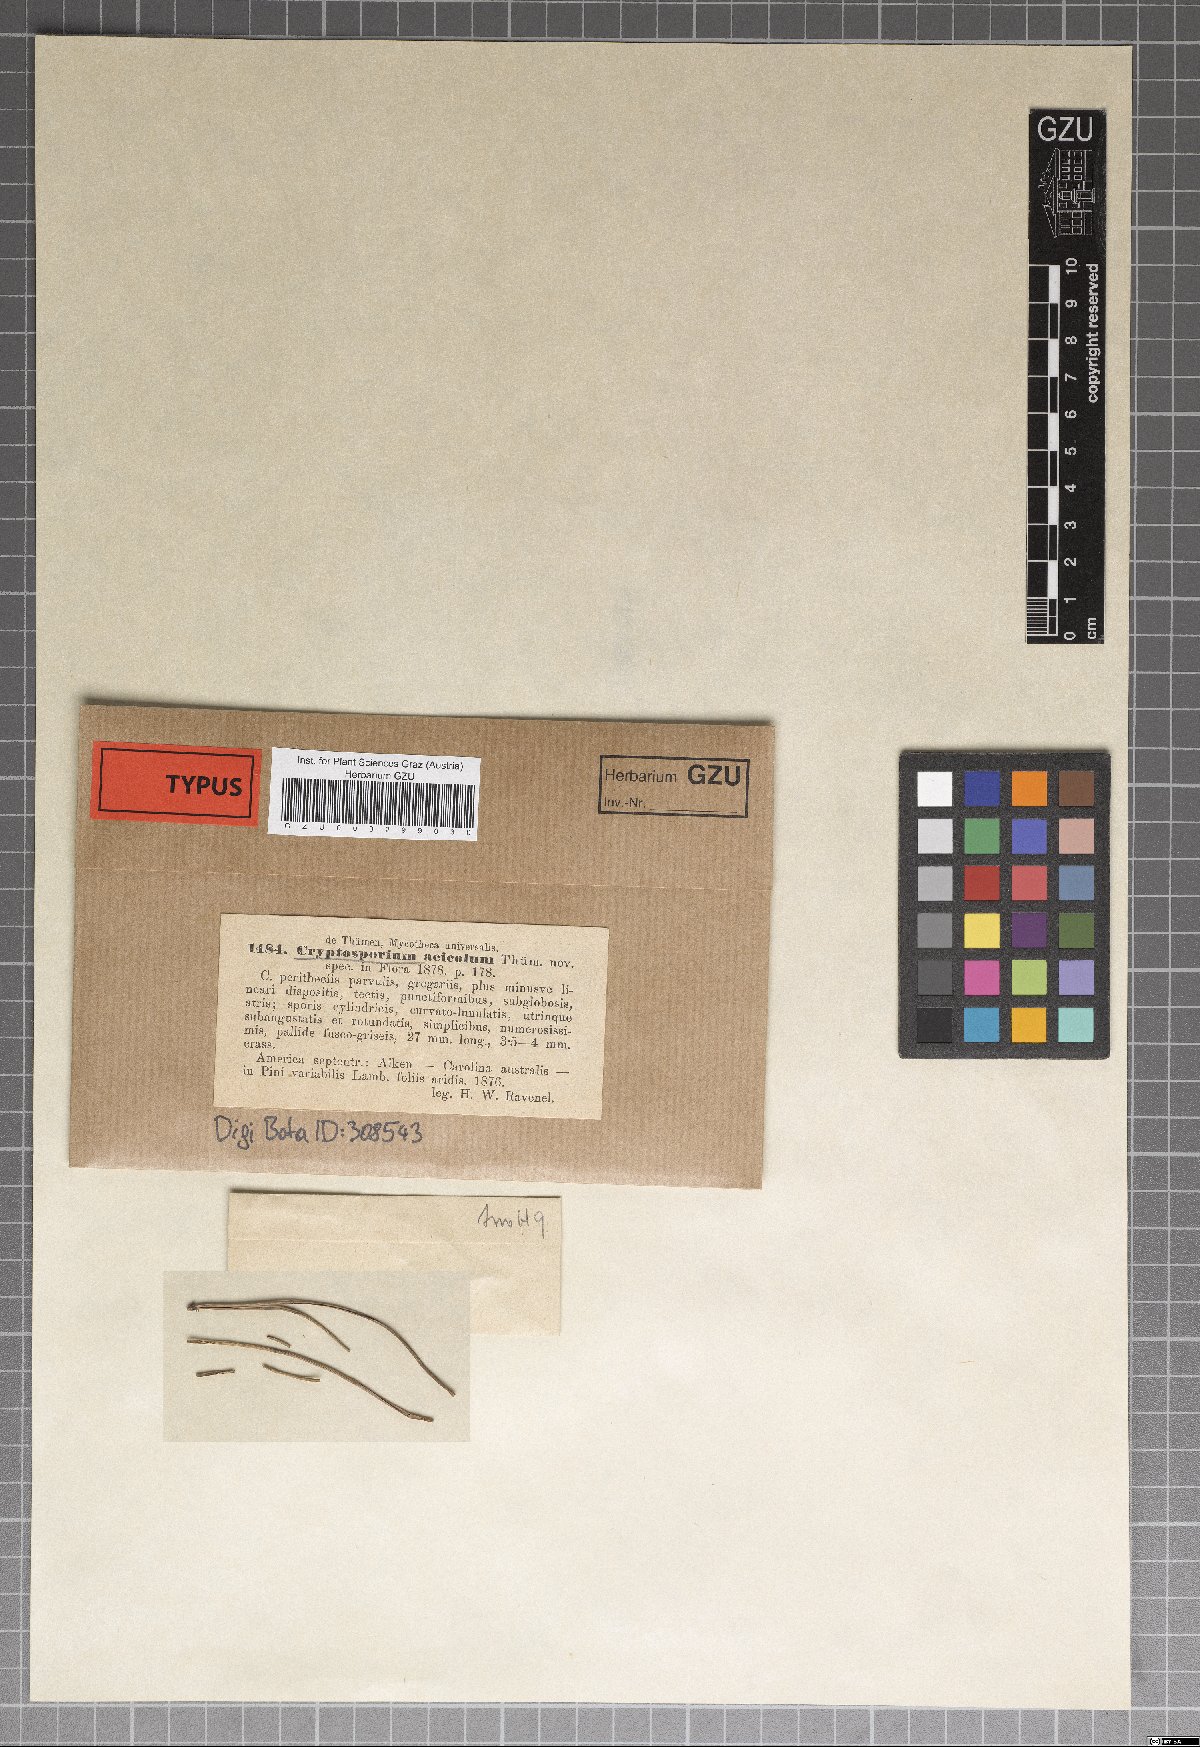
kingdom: Fungi
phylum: Ascomycota
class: Dothideomycetes
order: Mycosphaerellales
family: Mycosphaerellaceae
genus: Lecanosticta
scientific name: Lecanosticta acicola
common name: Brown spot needle blight
